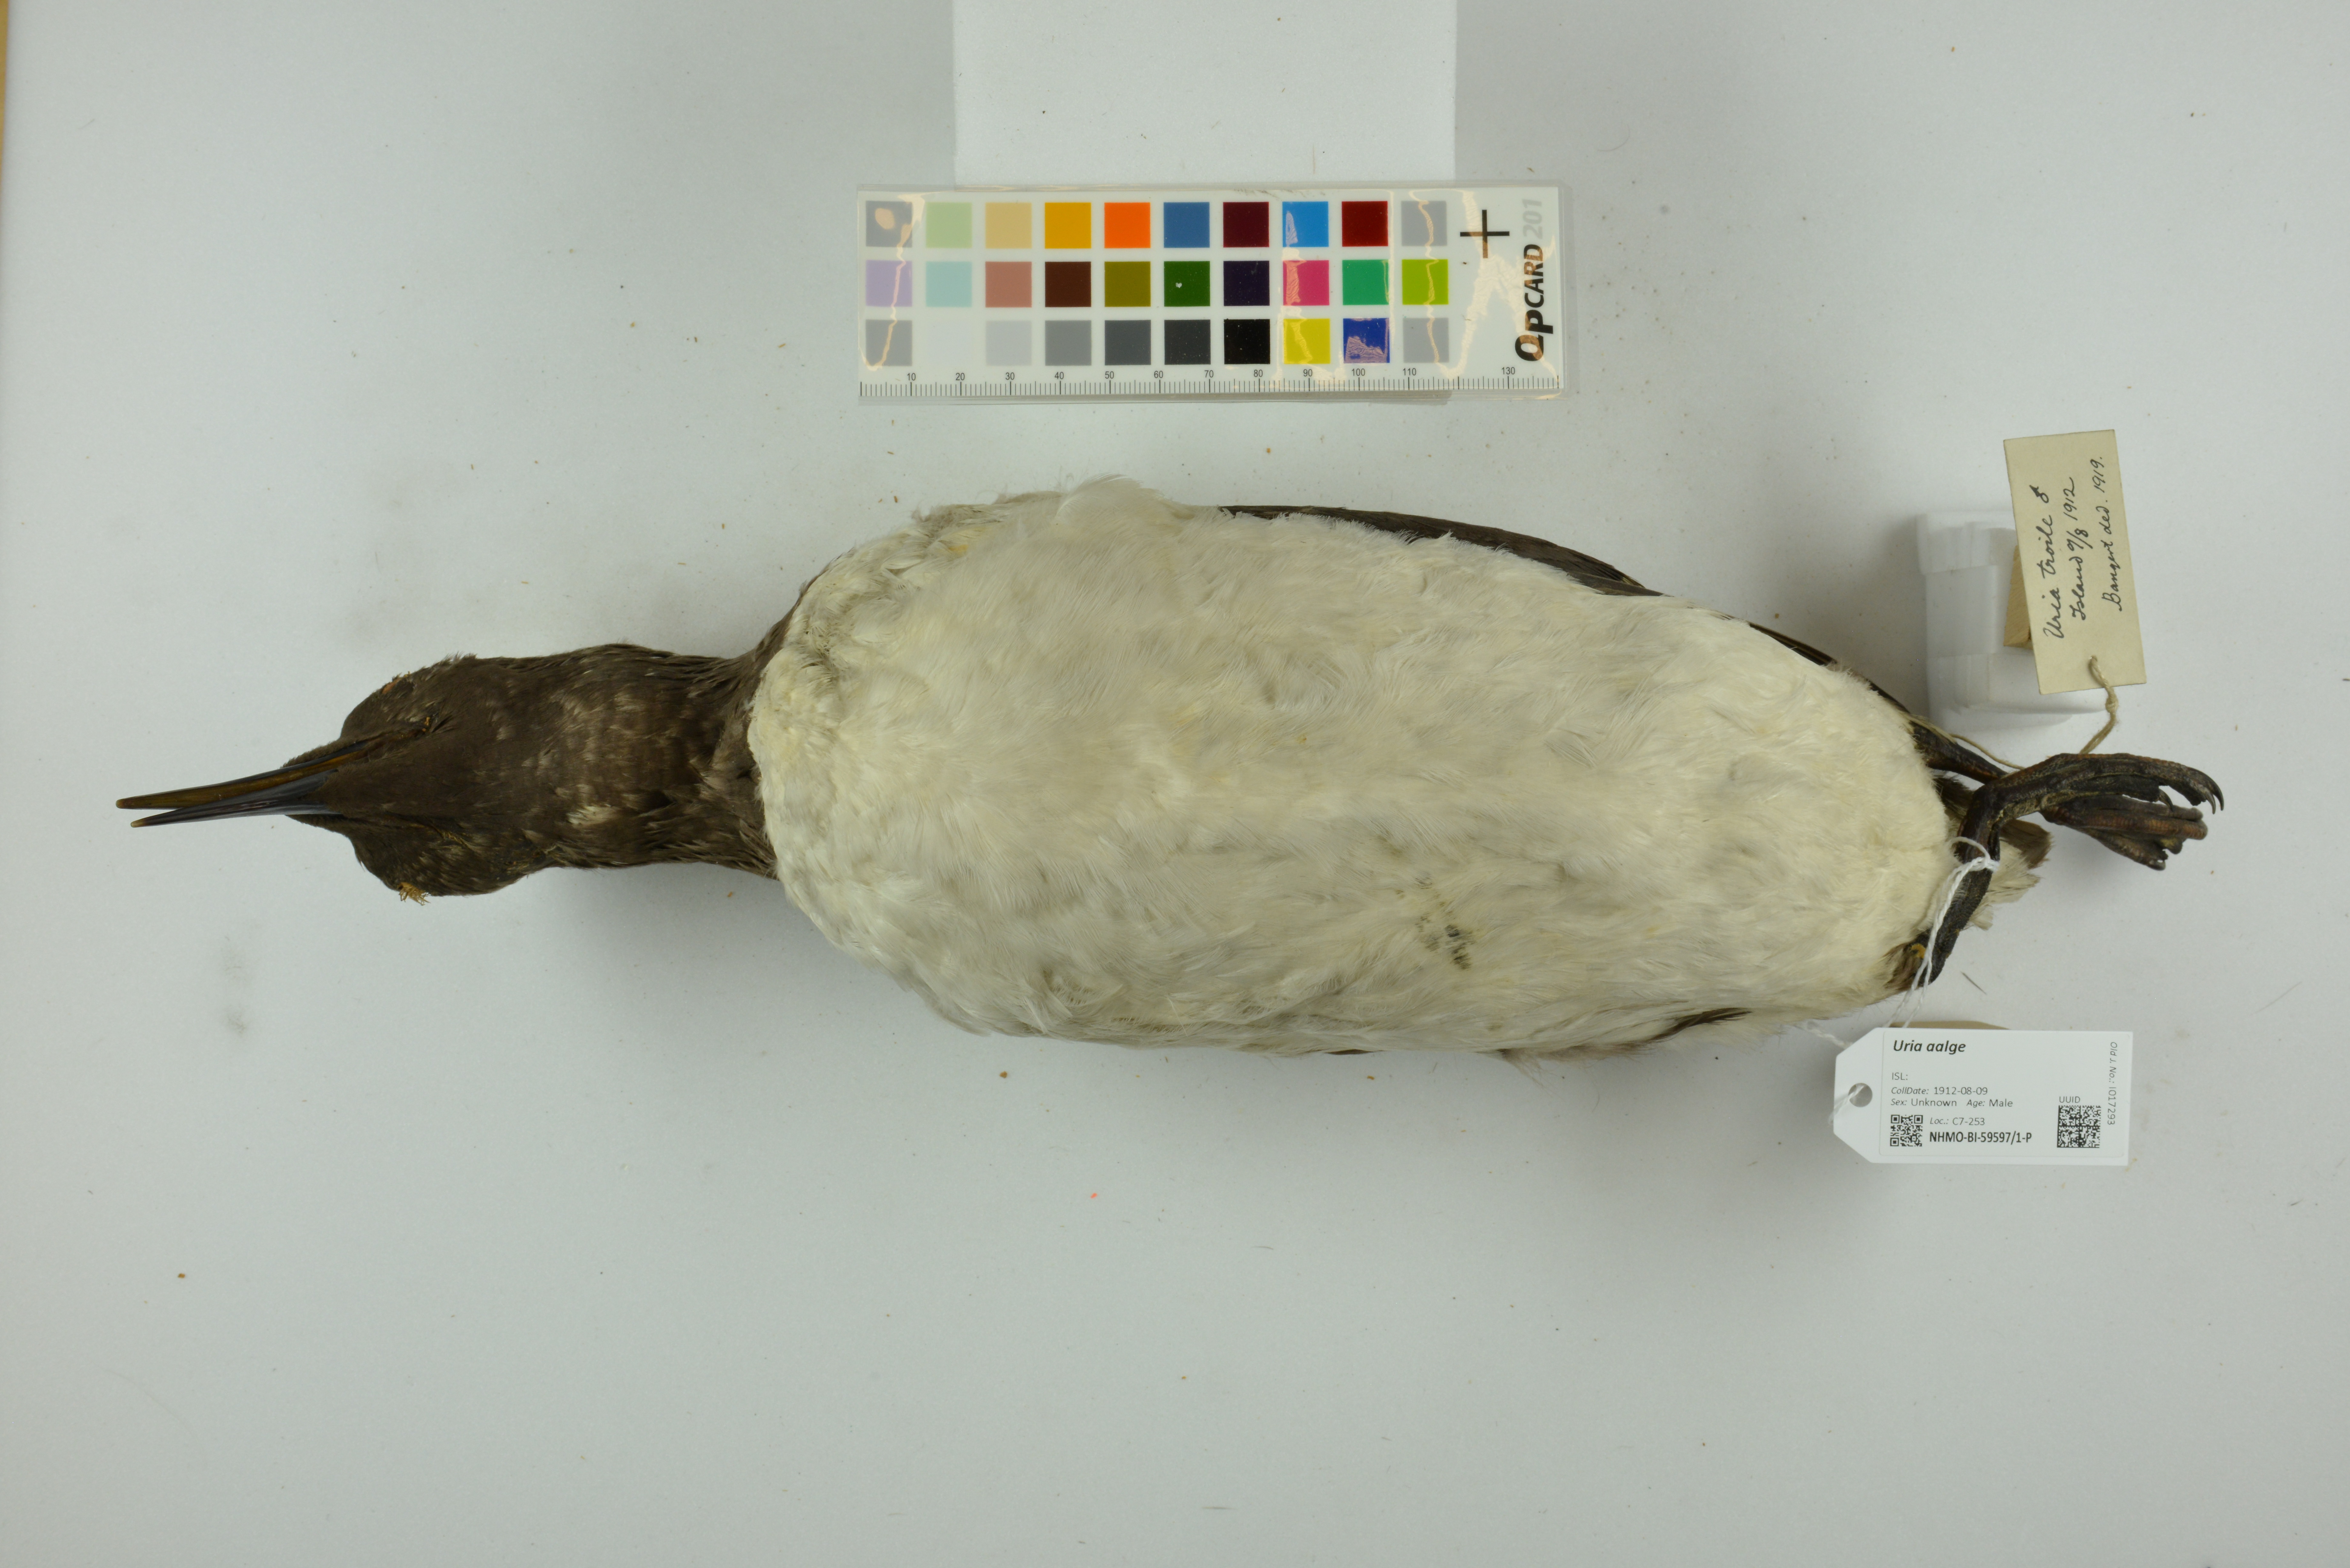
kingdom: Animalia
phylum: Chordata
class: Aves
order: Charadriiformes
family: Alcidae
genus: Uria
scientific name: Uria aalge
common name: Common murre
